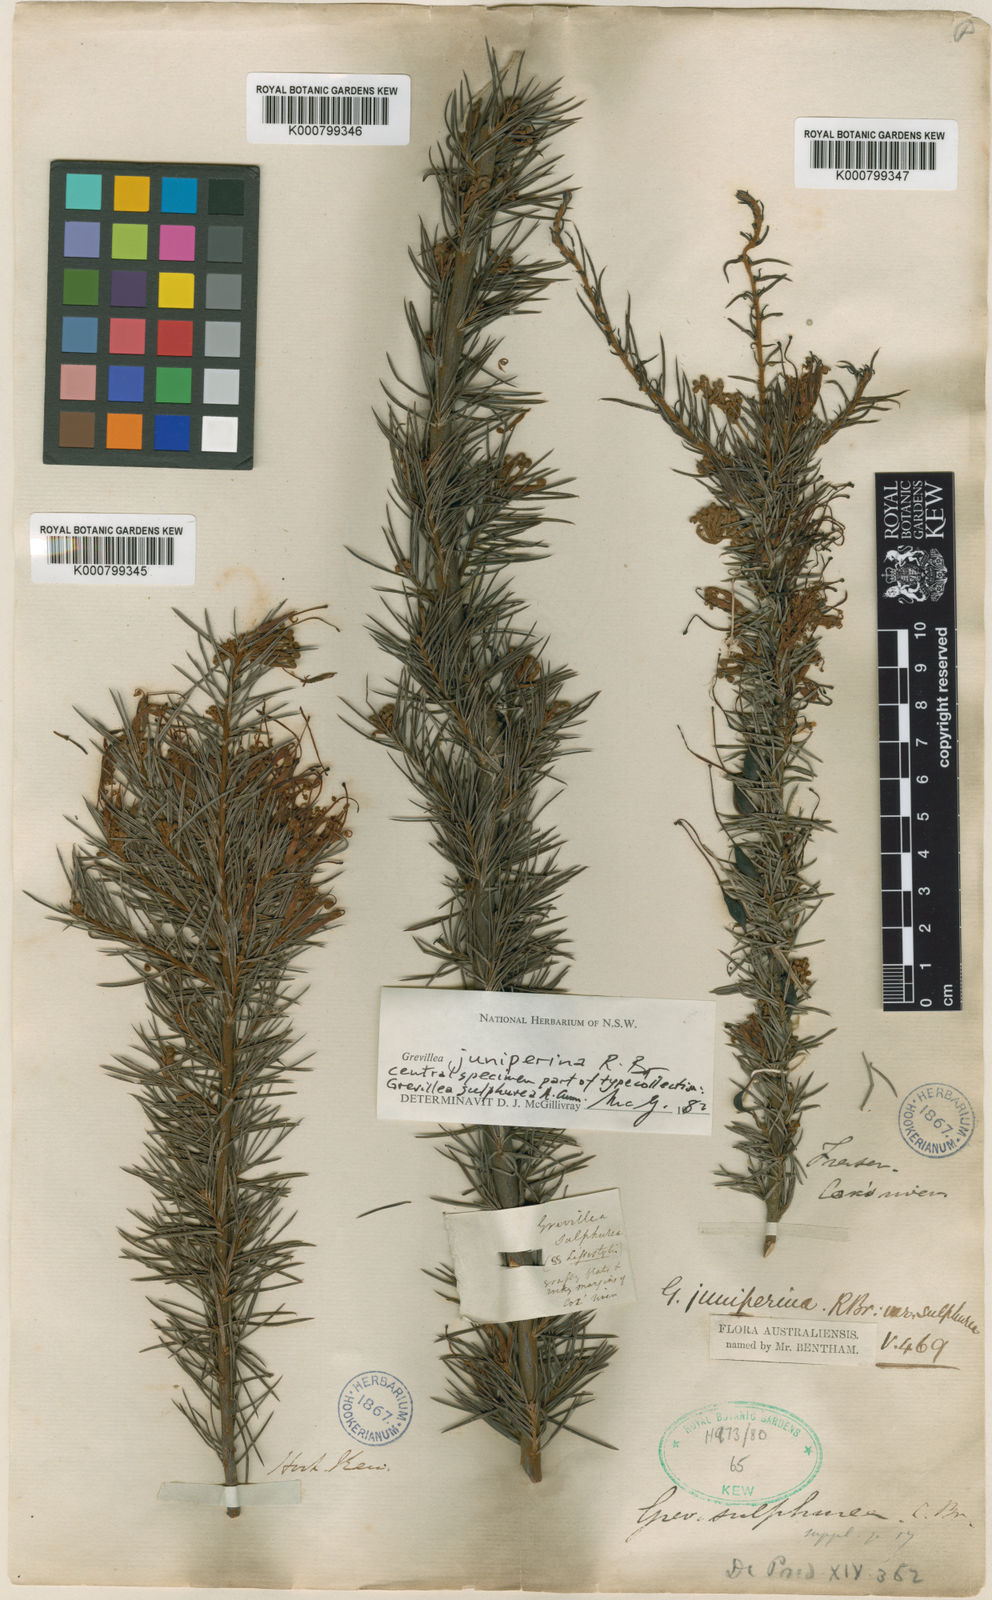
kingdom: Plantae
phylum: Tracheophyta
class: Magnoliopsida
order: Proteales
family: Proteaceae
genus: Grevillea
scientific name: Grevillea juniperina
